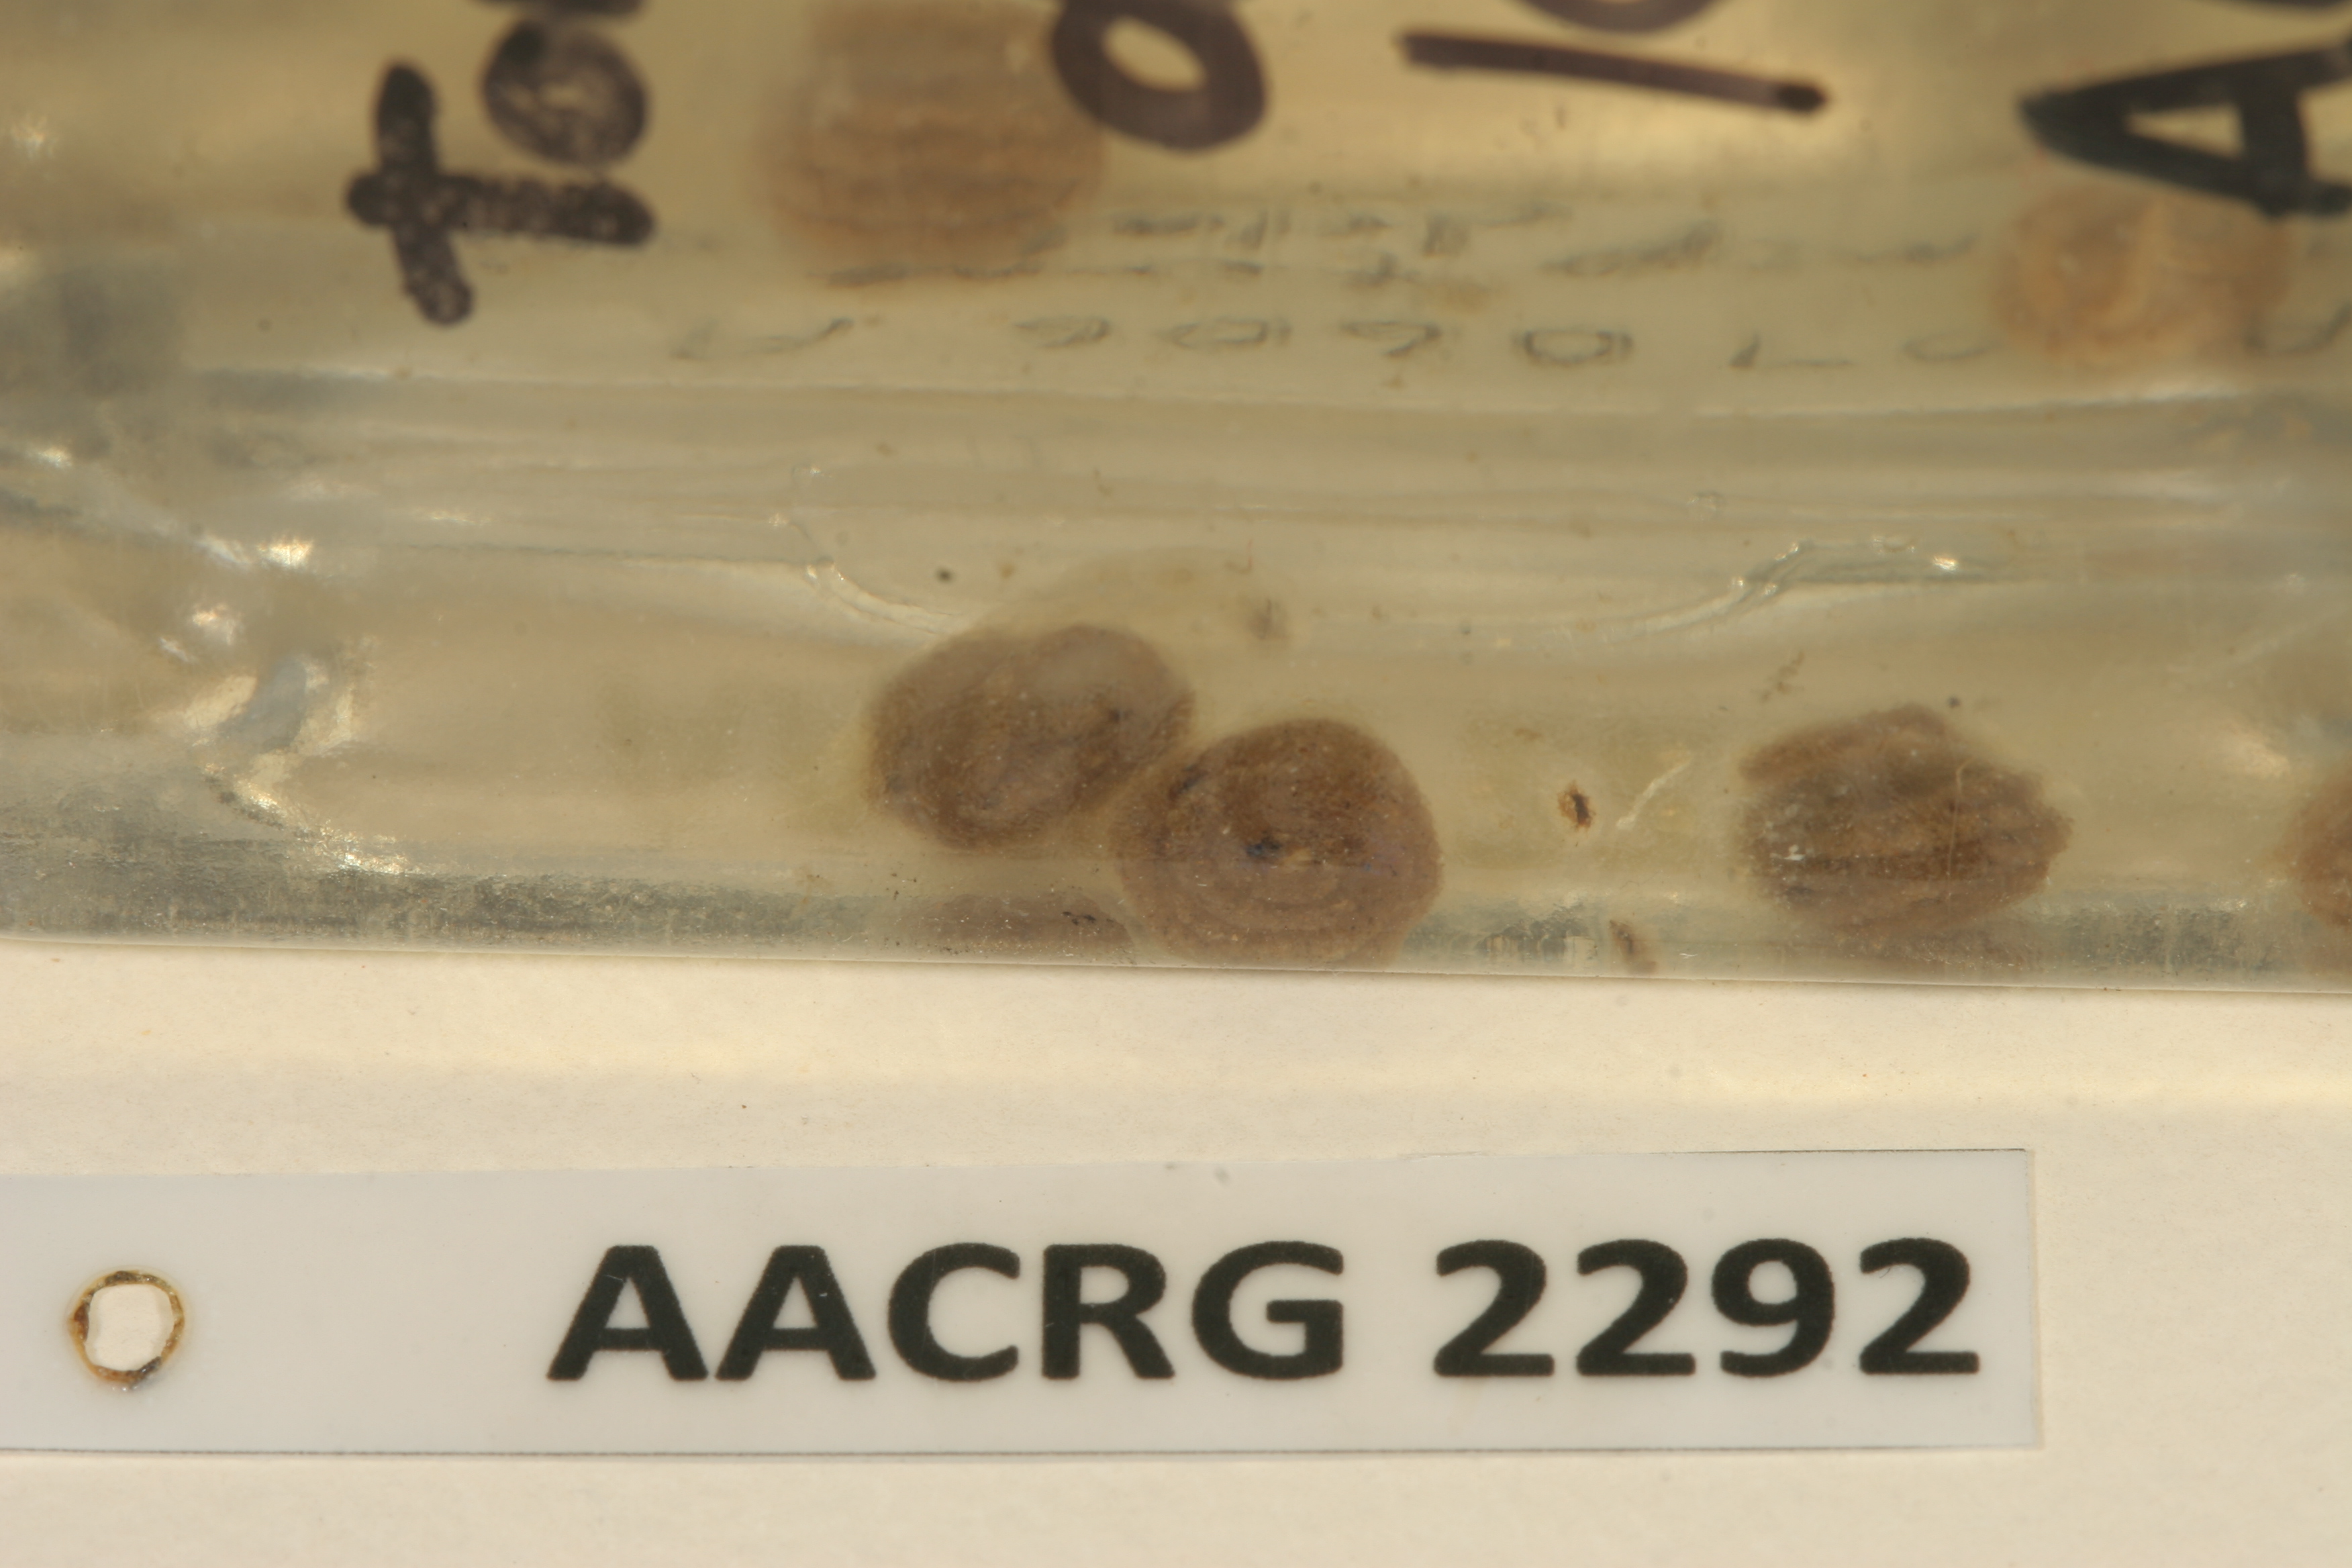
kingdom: Animalia
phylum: Chordata
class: Amphibia
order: Anura
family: Pyxicephalidae
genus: Tomopterna
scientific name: Tomopterna delalandii
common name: Delalande's burrowing bullfrog
